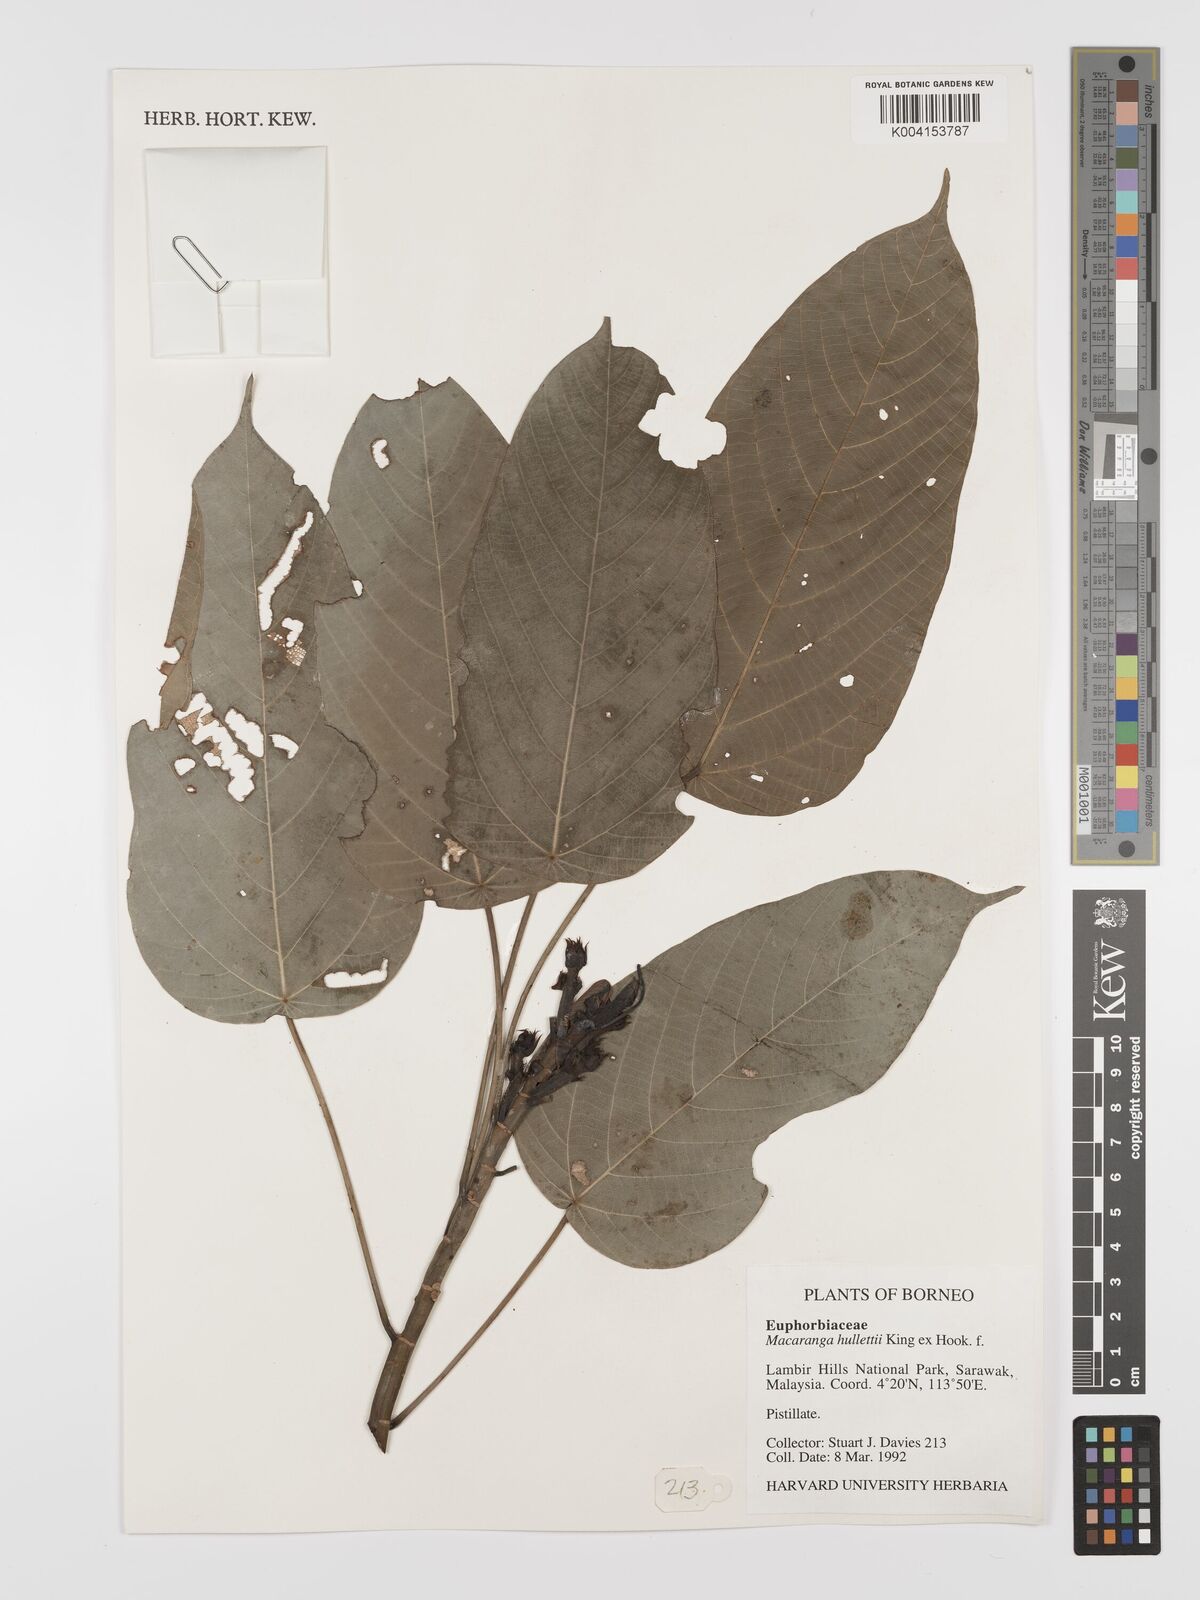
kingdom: Plantae
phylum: Tracheophyta
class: Magnoliopsida
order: Malpighiales
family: Euphorbiaceae
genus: Macaranga
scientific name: Macaranga hullettii
